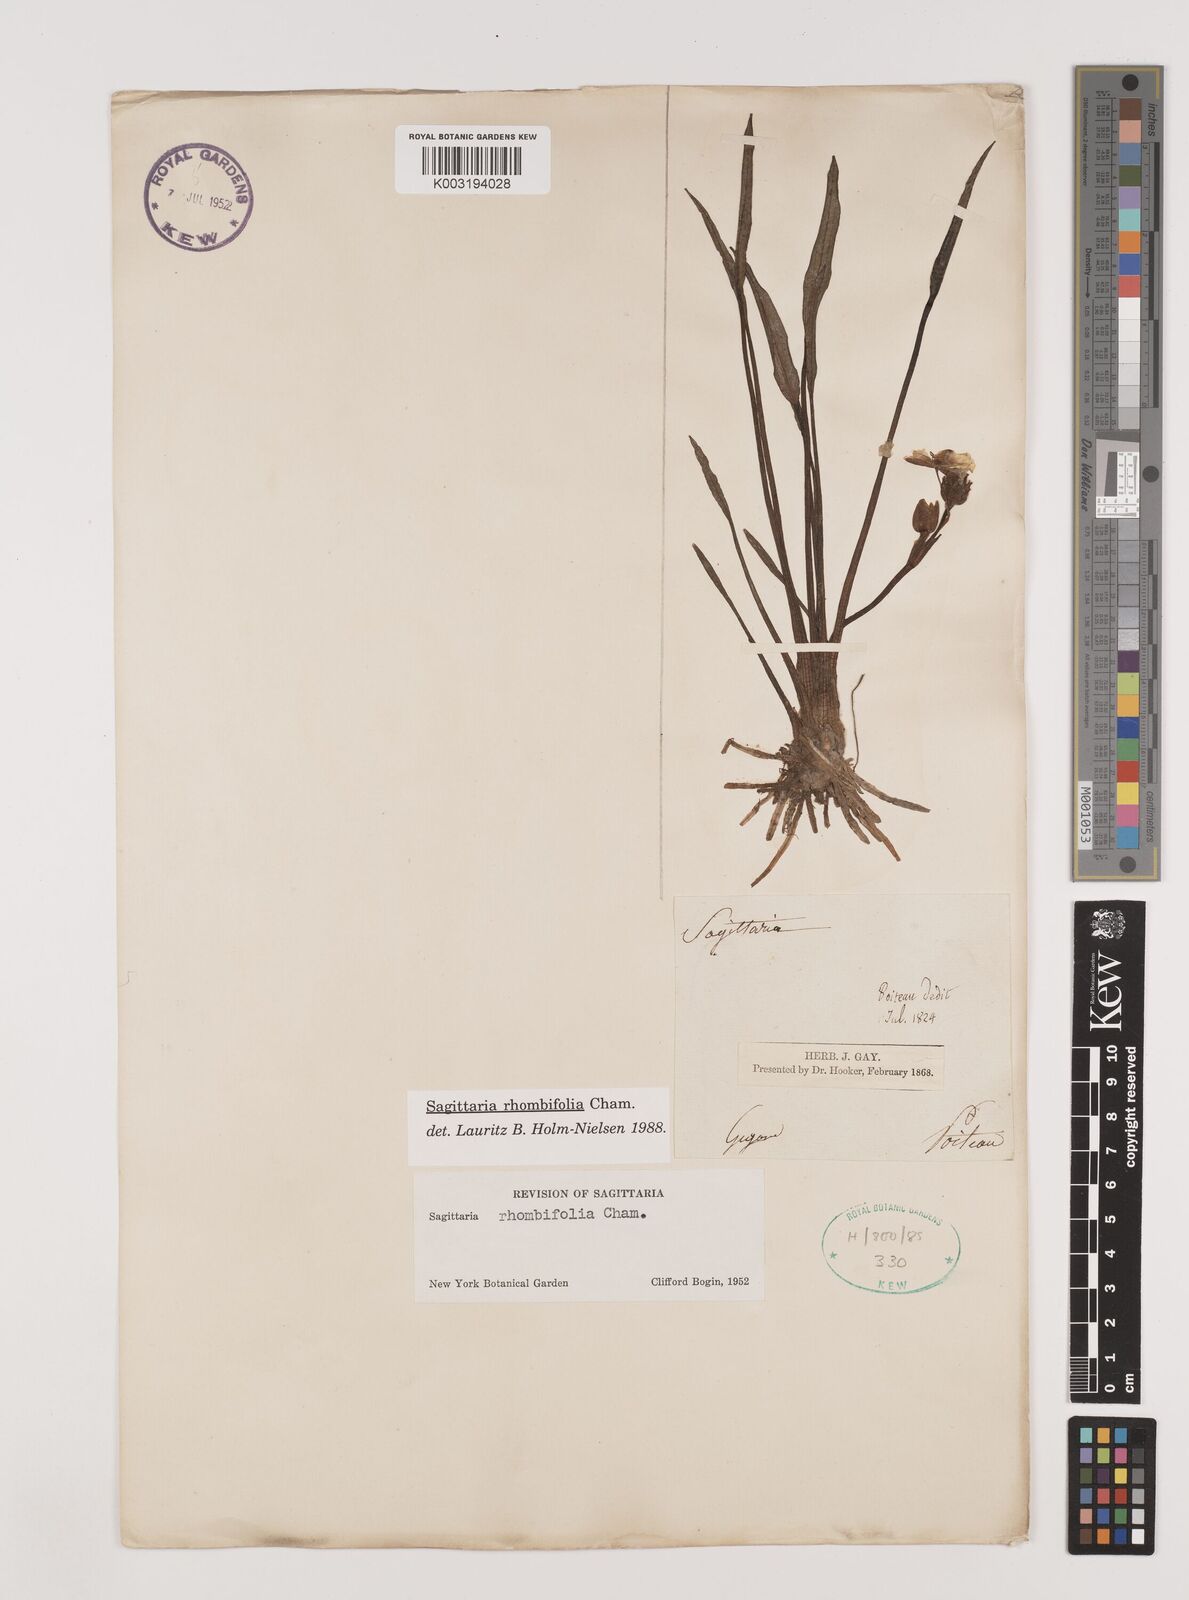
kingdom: Plantae
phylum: Tracheophyta
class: Liliopsida
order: Alismatales
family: Alismataceae
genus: Sagittaria
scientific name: Sagittaria rhombifolia
